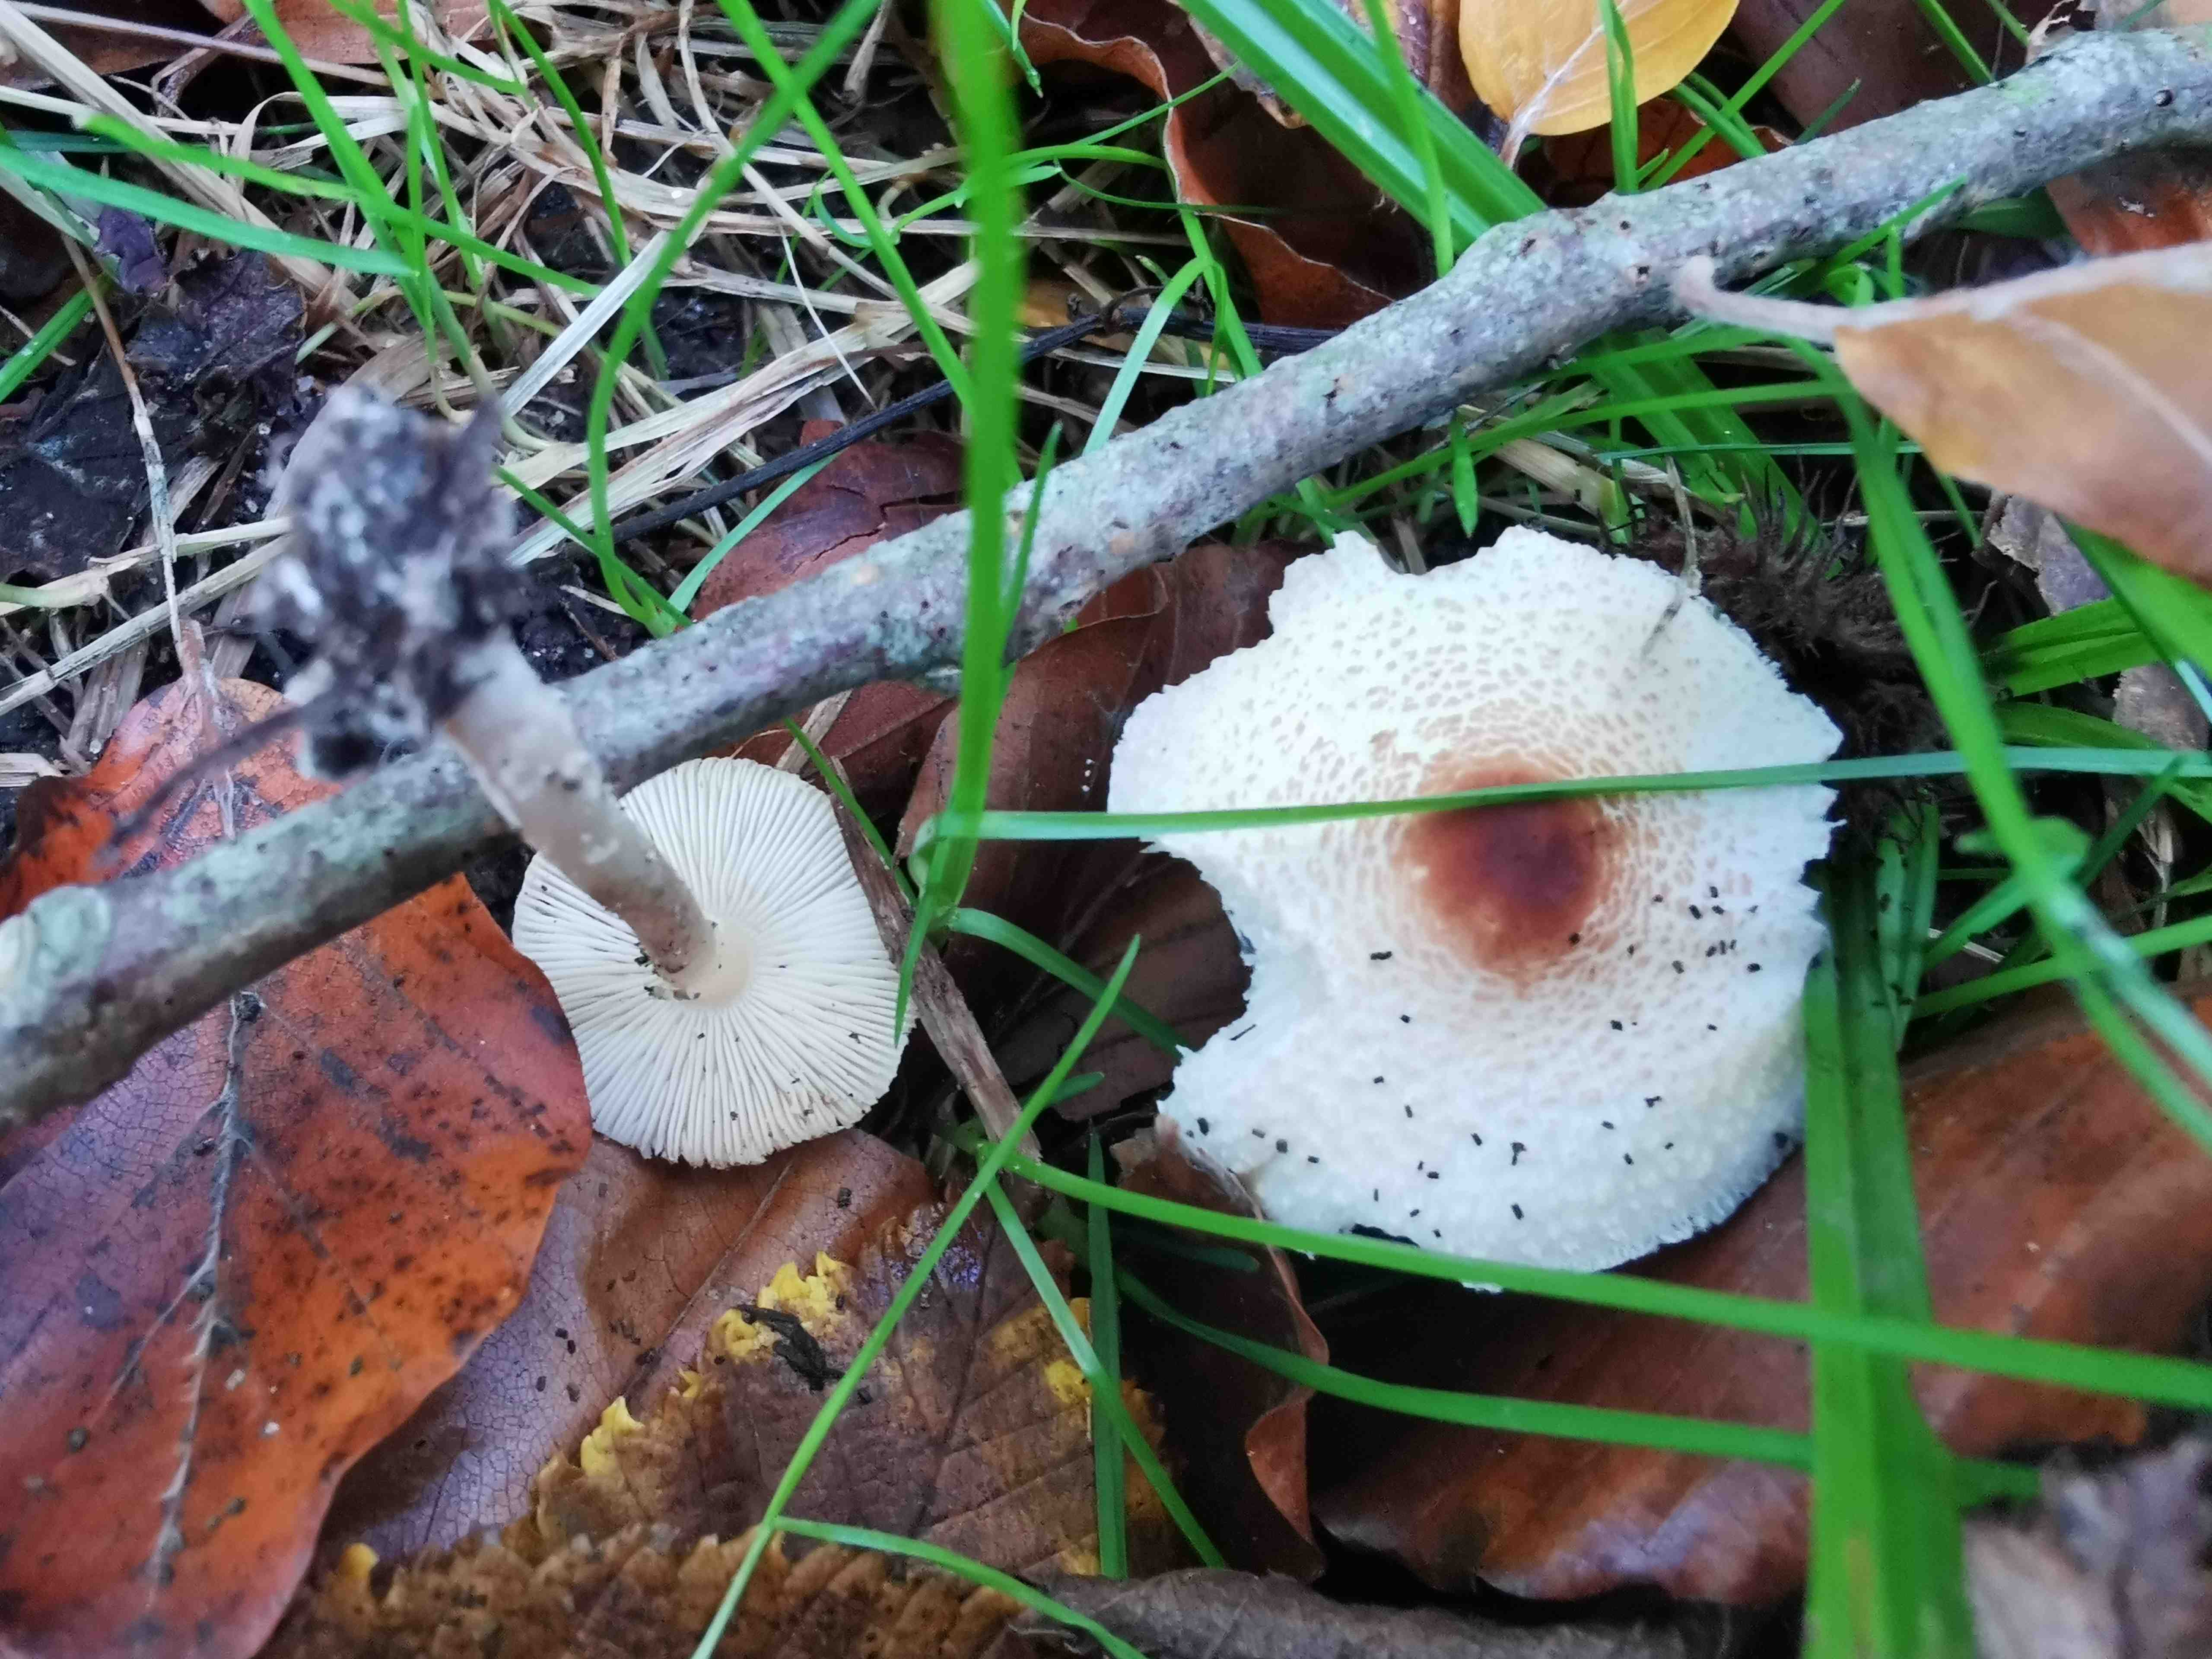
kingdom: Fungi
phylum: Basidiomycota
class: Agaricomycetes
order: Agaricales
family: Agaricaceae
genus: Lepiota
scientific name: Lepiota cristata
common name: stinkende parasolhat
